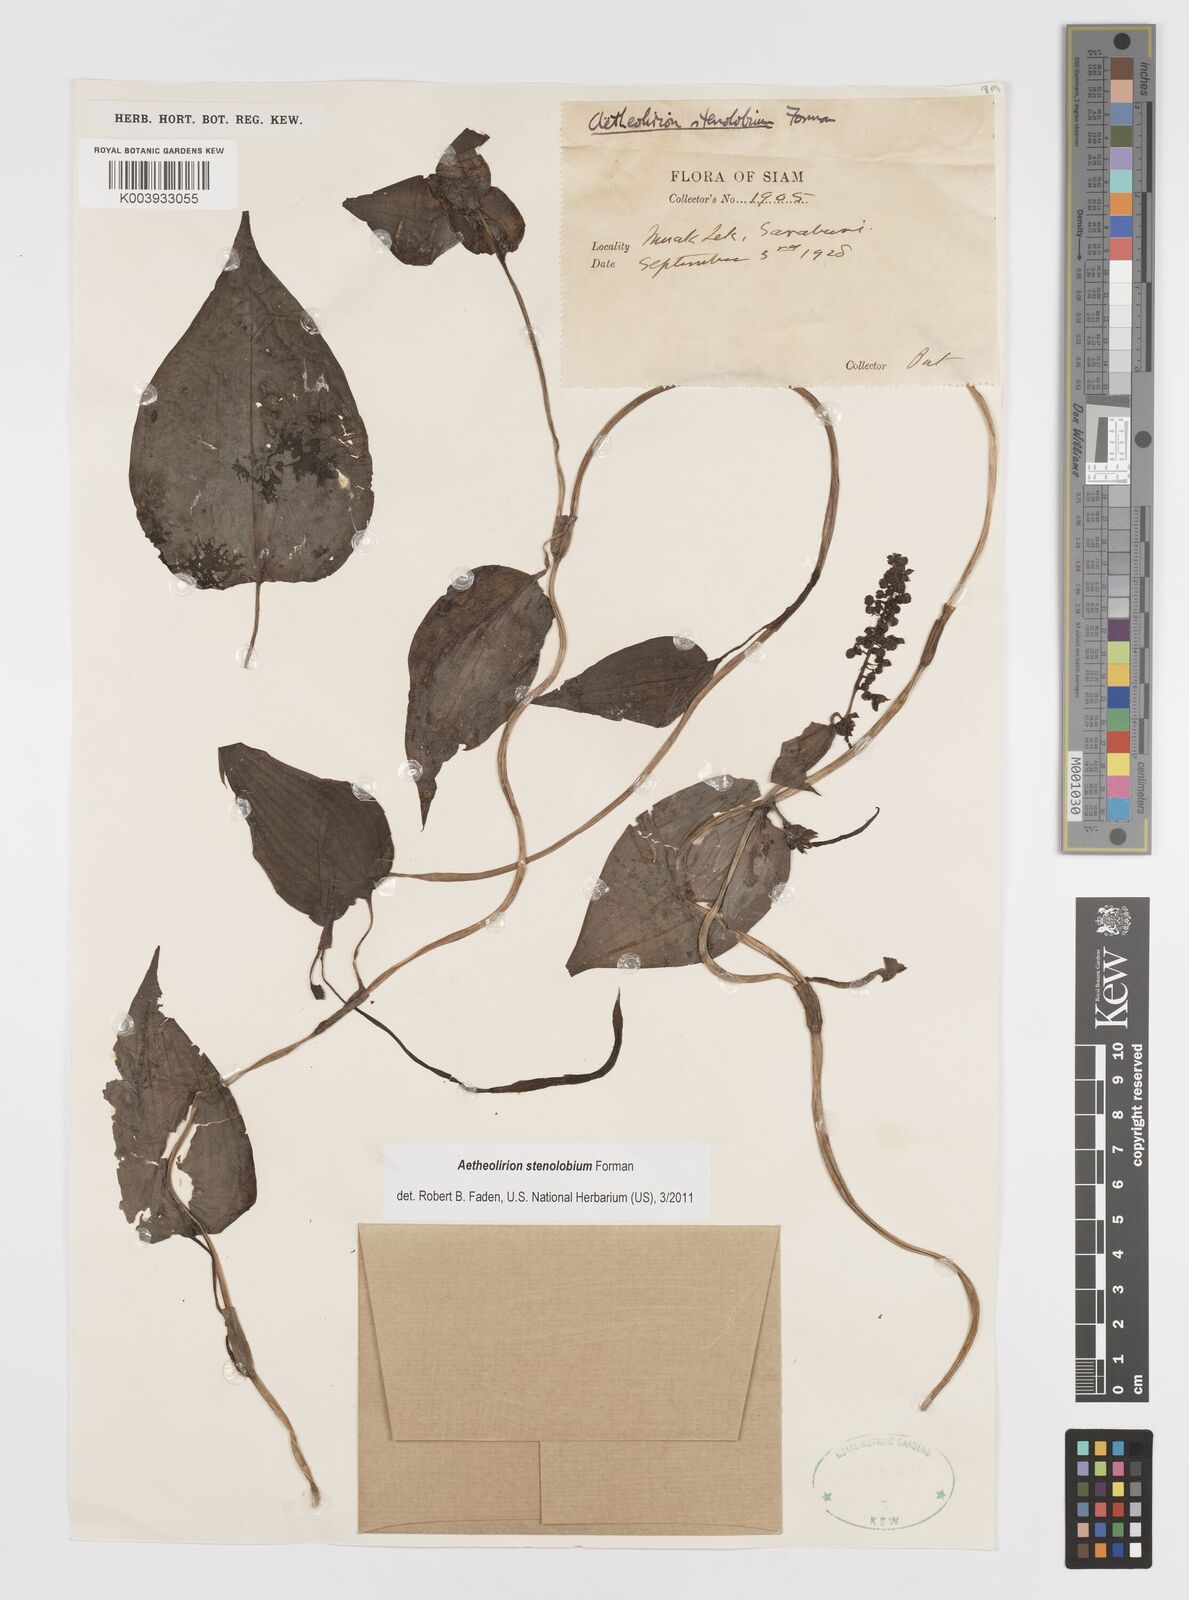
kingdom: Plantae
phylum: Tracheophyta
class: Liliopsida
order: Commelinales
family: Commelinaceae
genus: Aetheolirion
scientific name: Aetheolirion stenolobium
